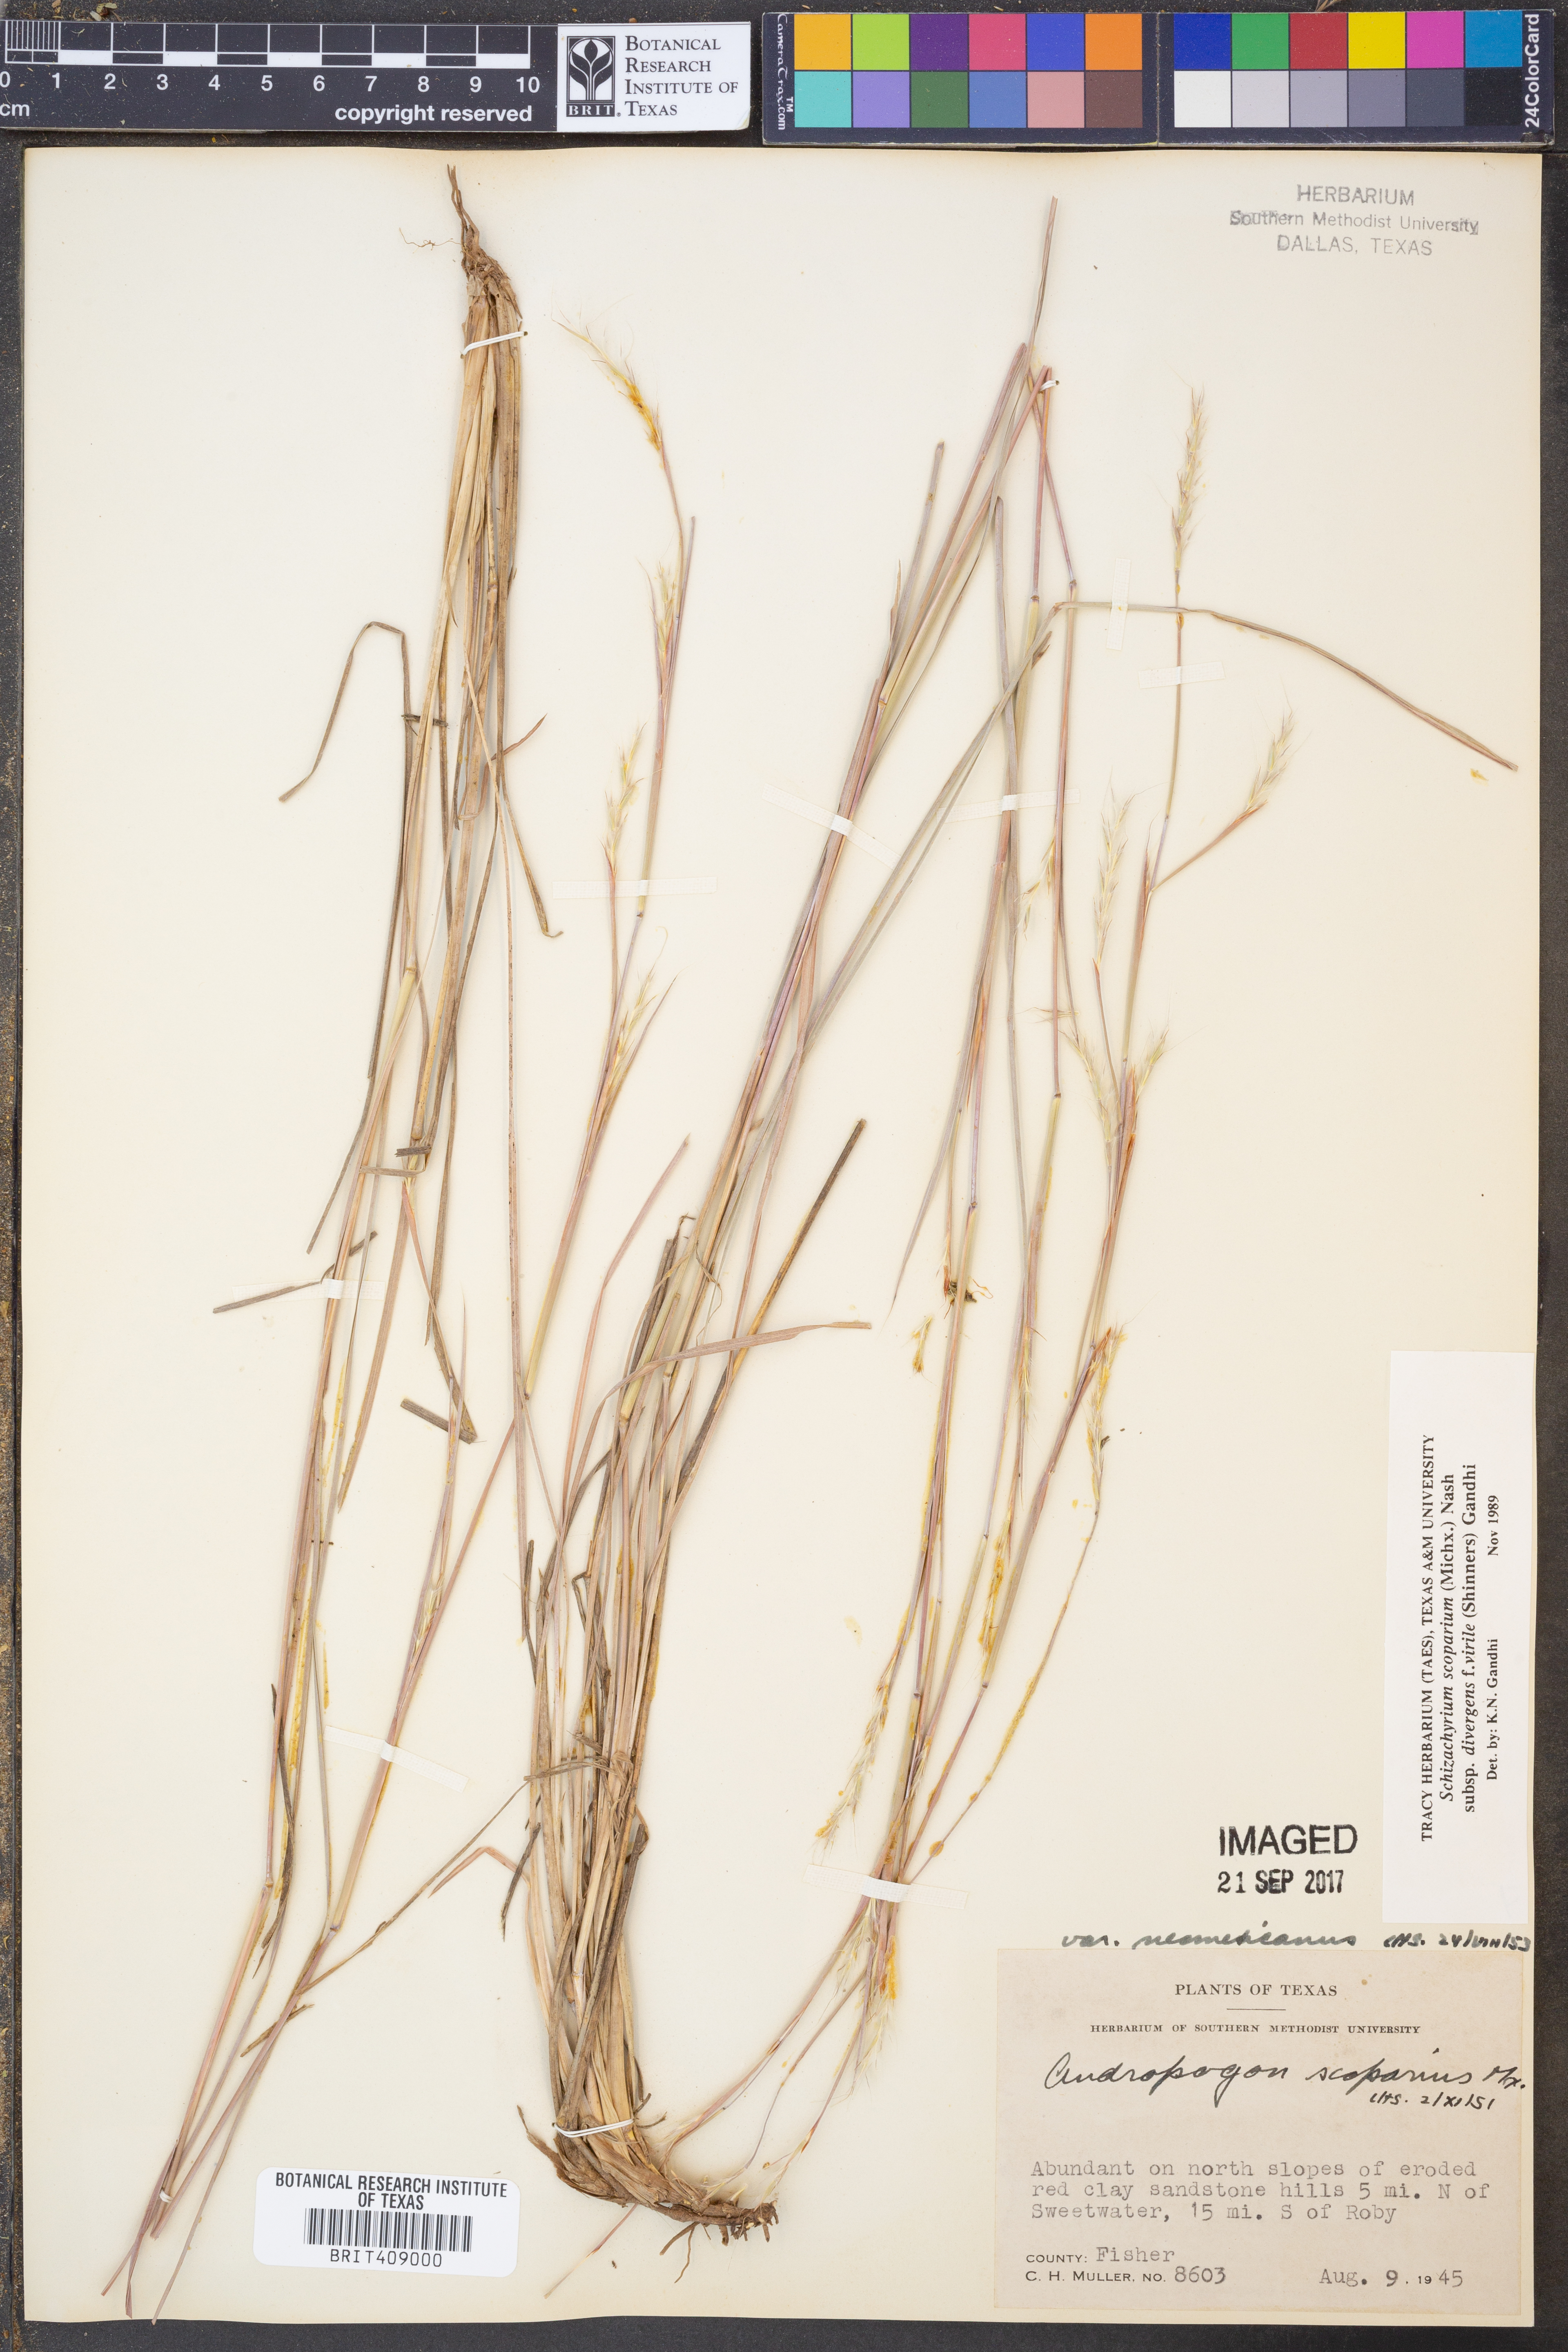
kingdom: Plantae
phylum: Tracheophyta
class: Liliopsida
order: Poales
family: Poaceae
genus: Schizachyrium
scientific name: Schizachyrium scoparium
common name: Little bluestem
